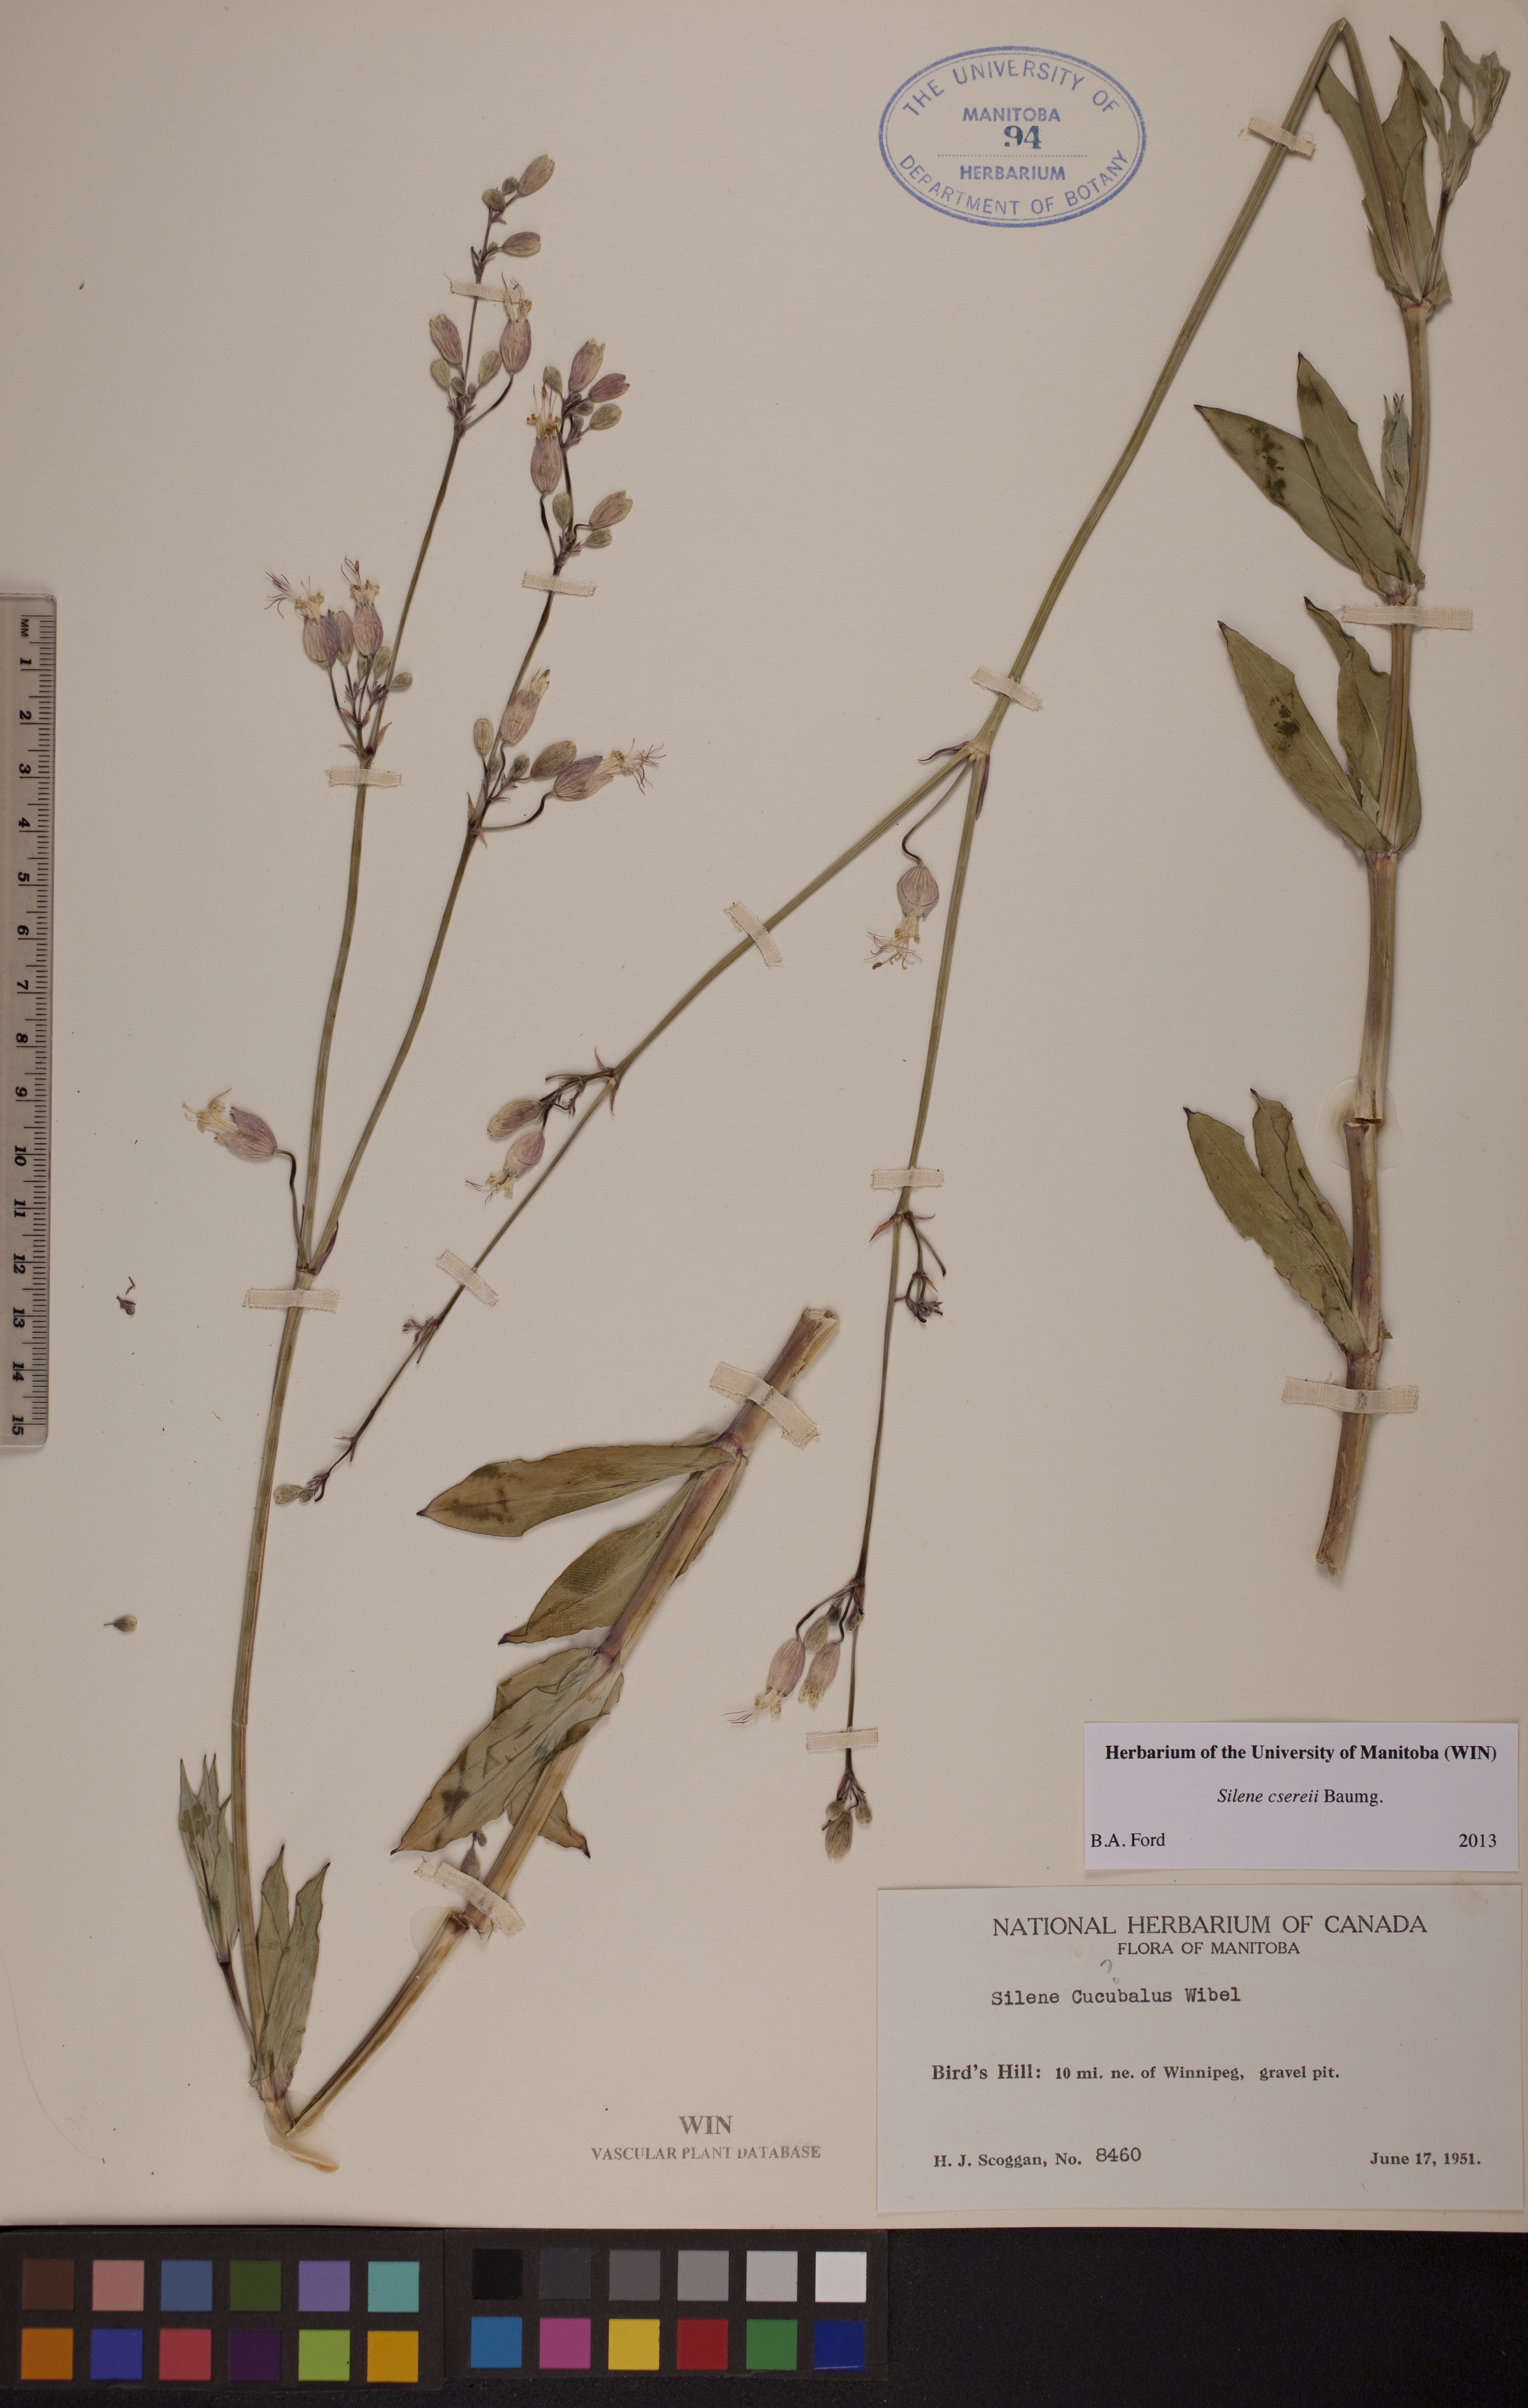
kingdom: Plantae
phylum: Tracheophyta
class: Magnoliopsida
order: Caryophyllales
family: Caryophyllaceae
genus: Silene
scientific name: Silene csereii
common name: Balkan catchfly
